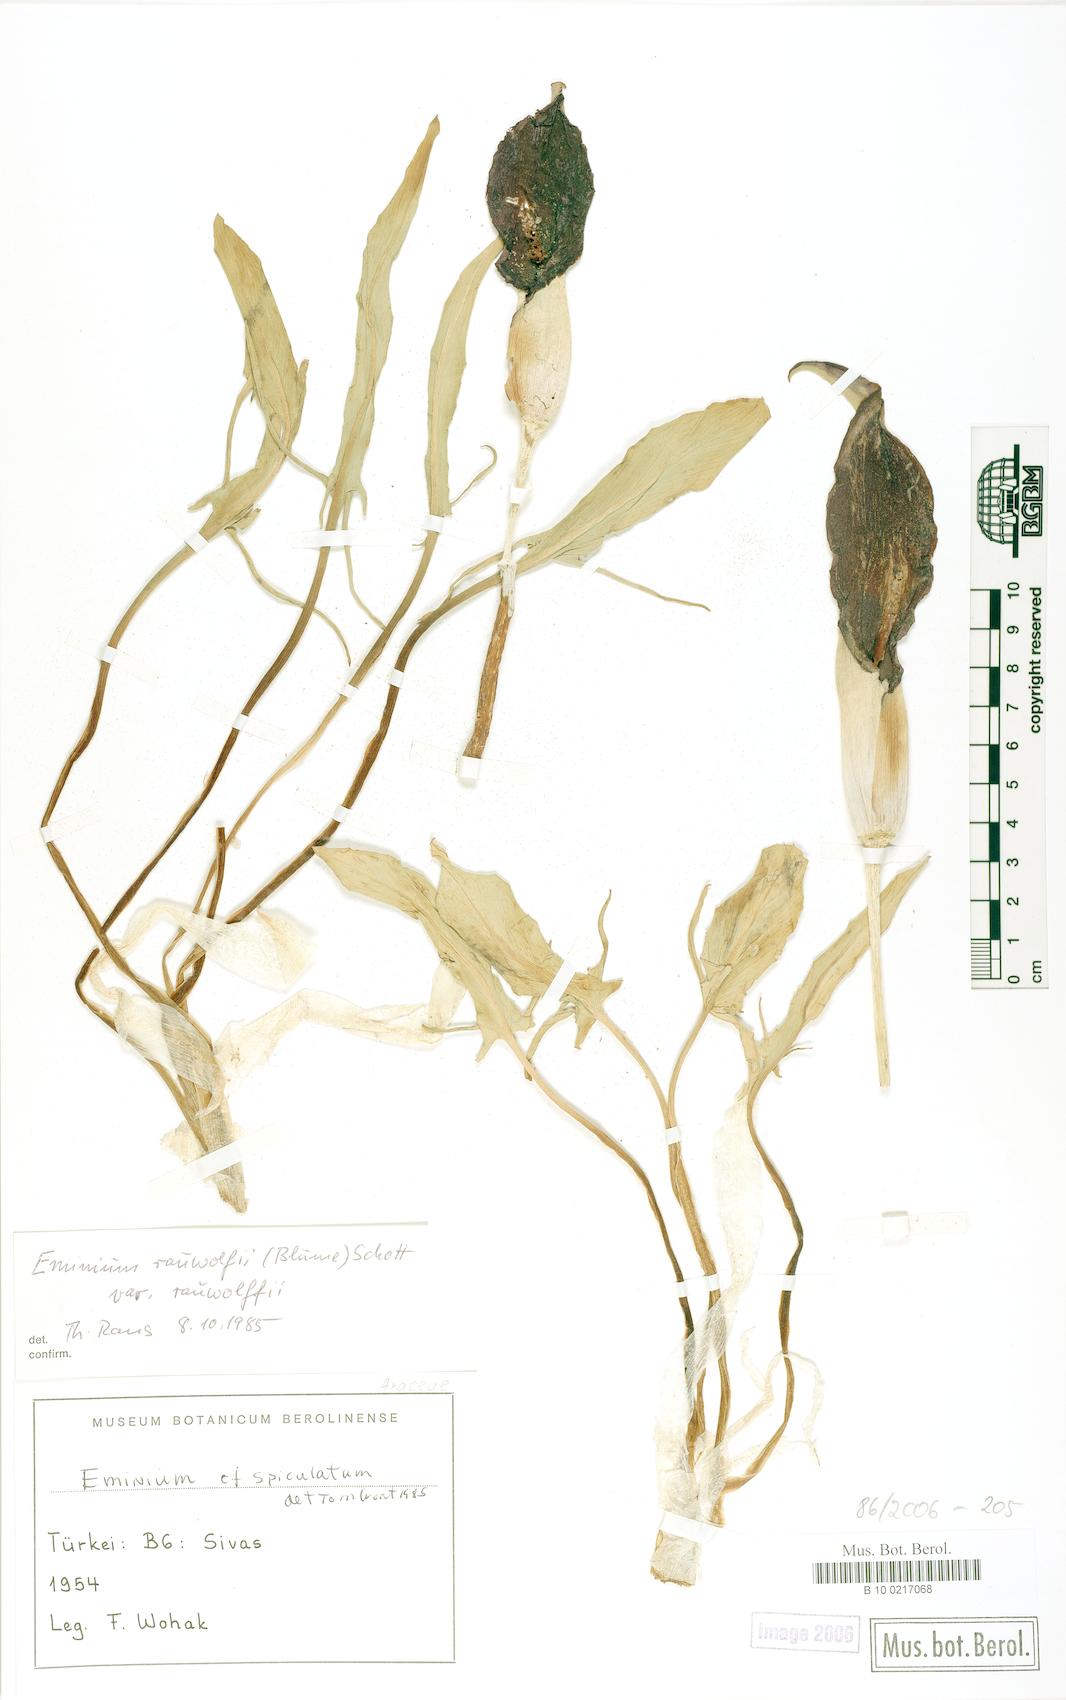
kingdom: Plantae
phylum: Tracheophyta
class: Liliopsida
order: Alismatales
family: Araceae
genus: Eminium
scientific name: Eminium rauwolffii
